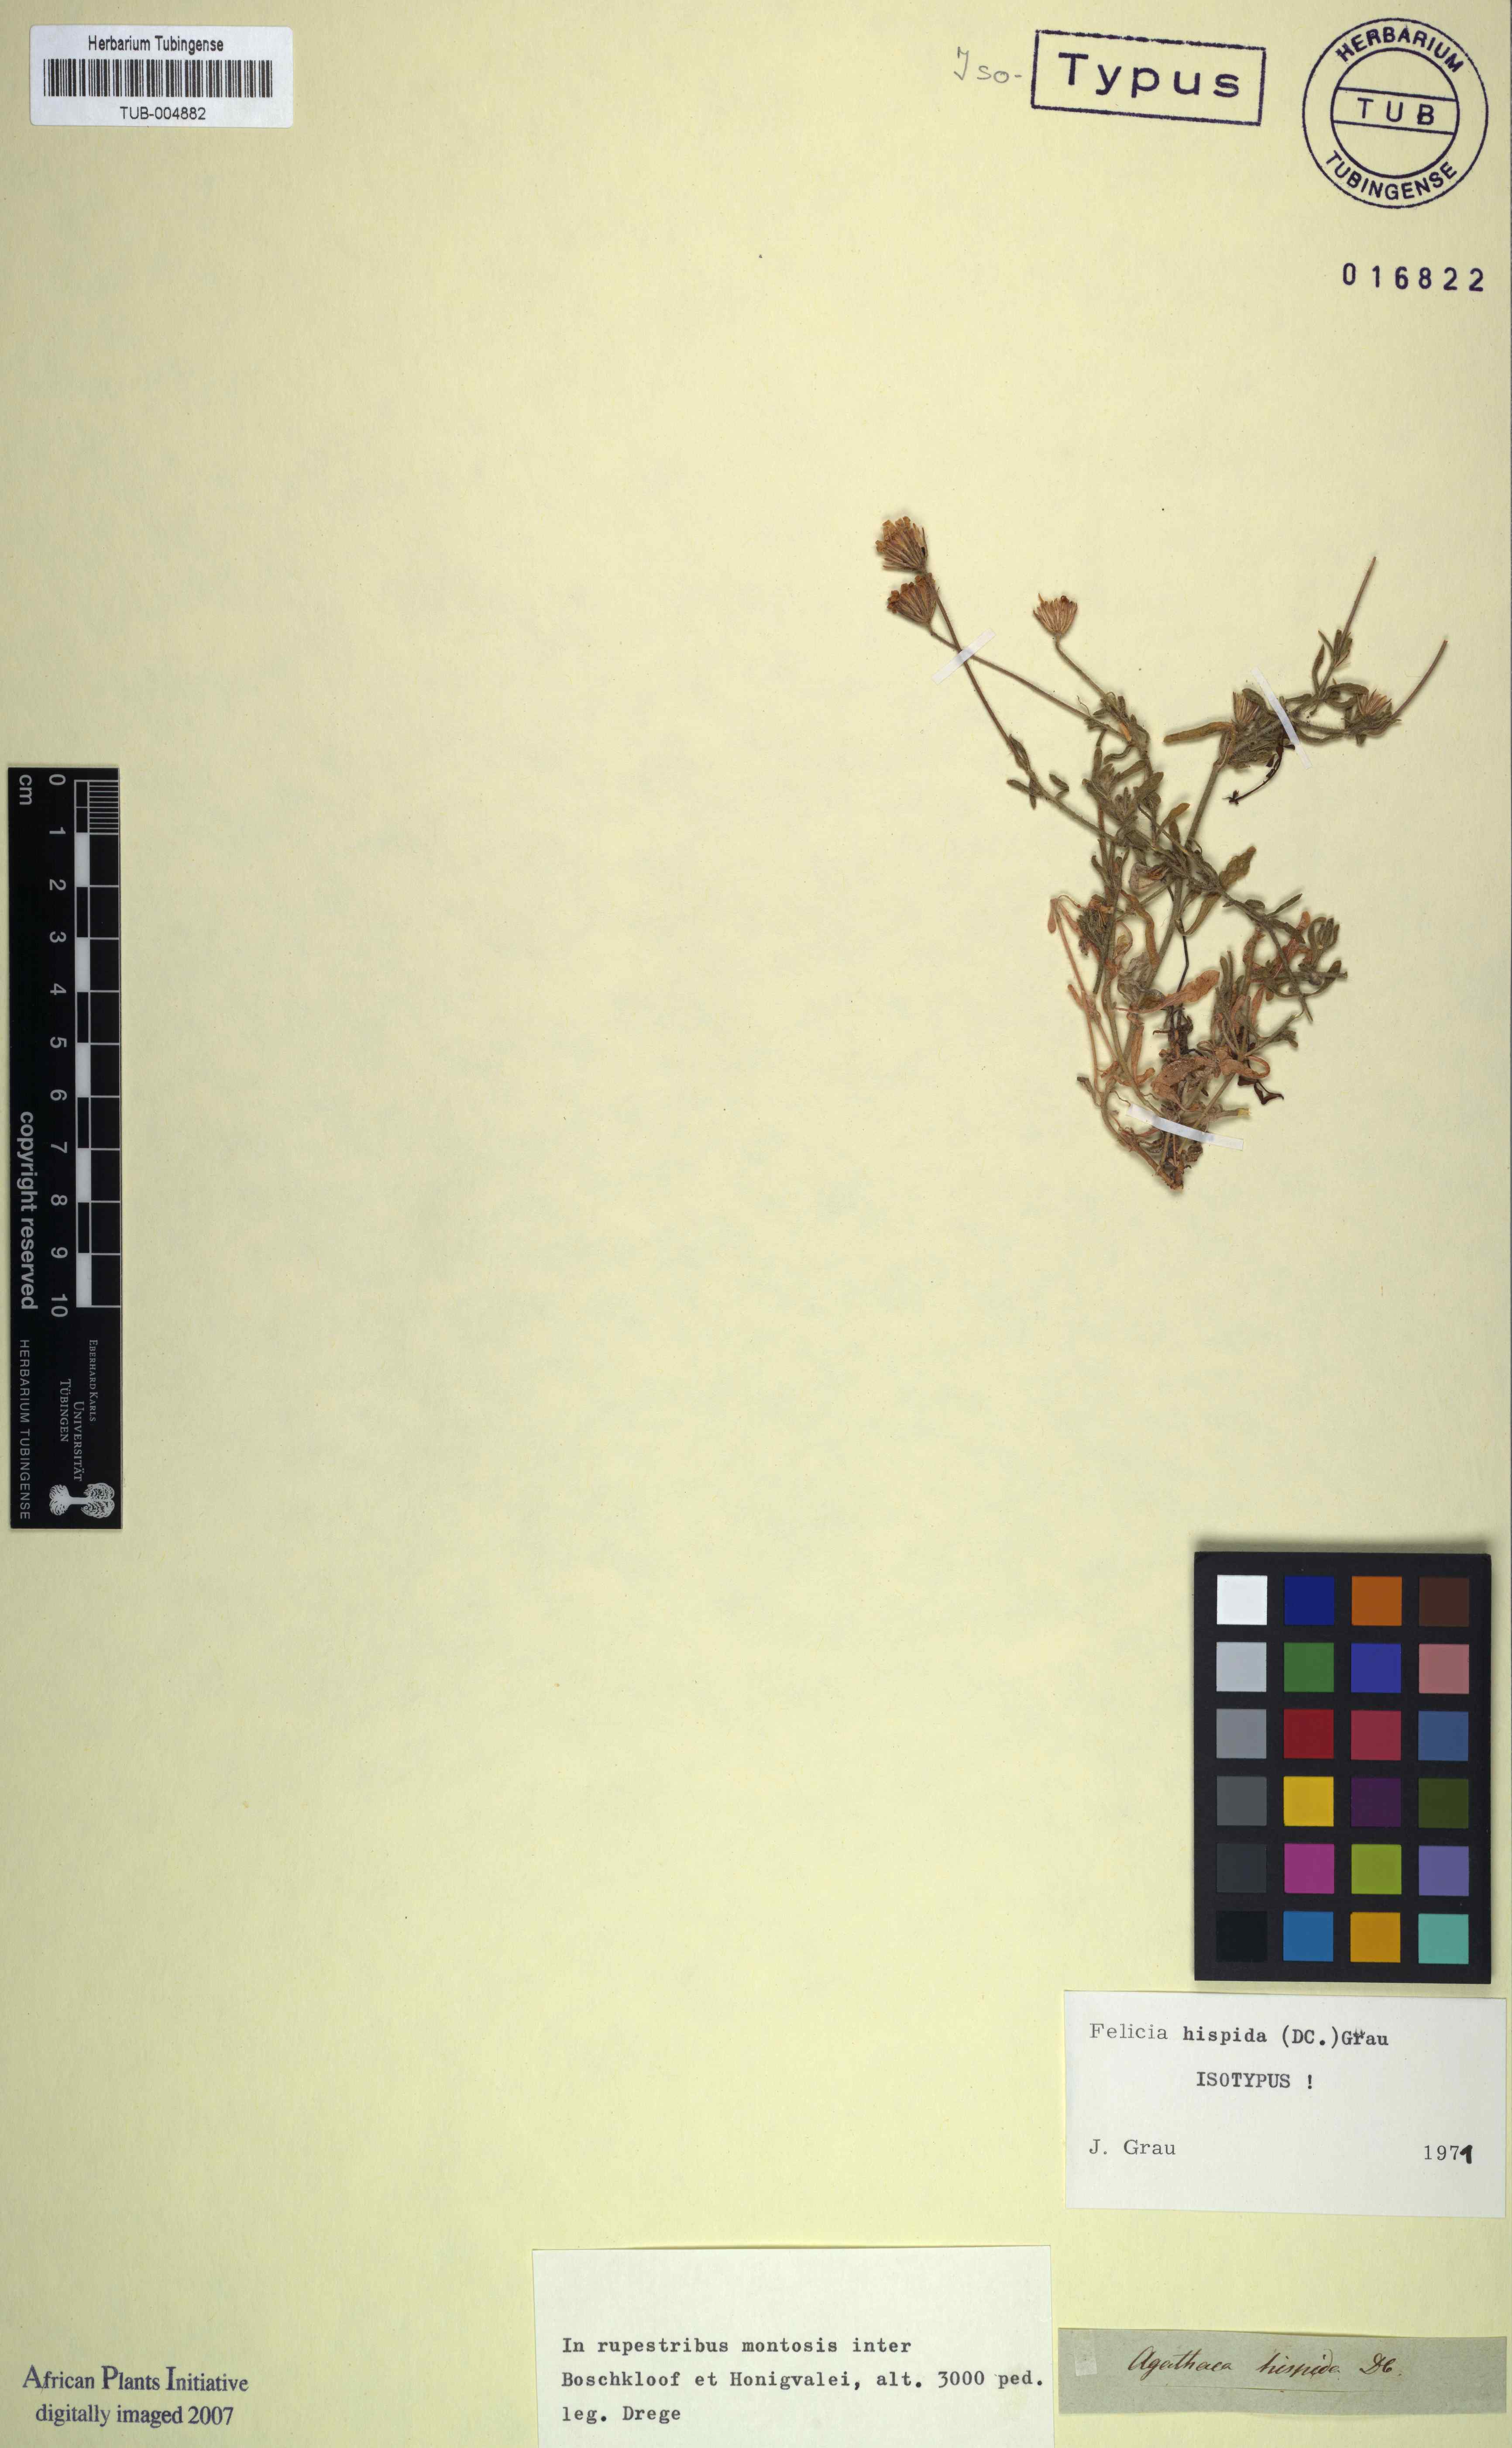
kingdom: Plantae
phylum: Tracheophyta
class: Magnoliopsida
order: Asterales
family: Asteraceae
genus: Felicia
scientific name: Felicia hispida
